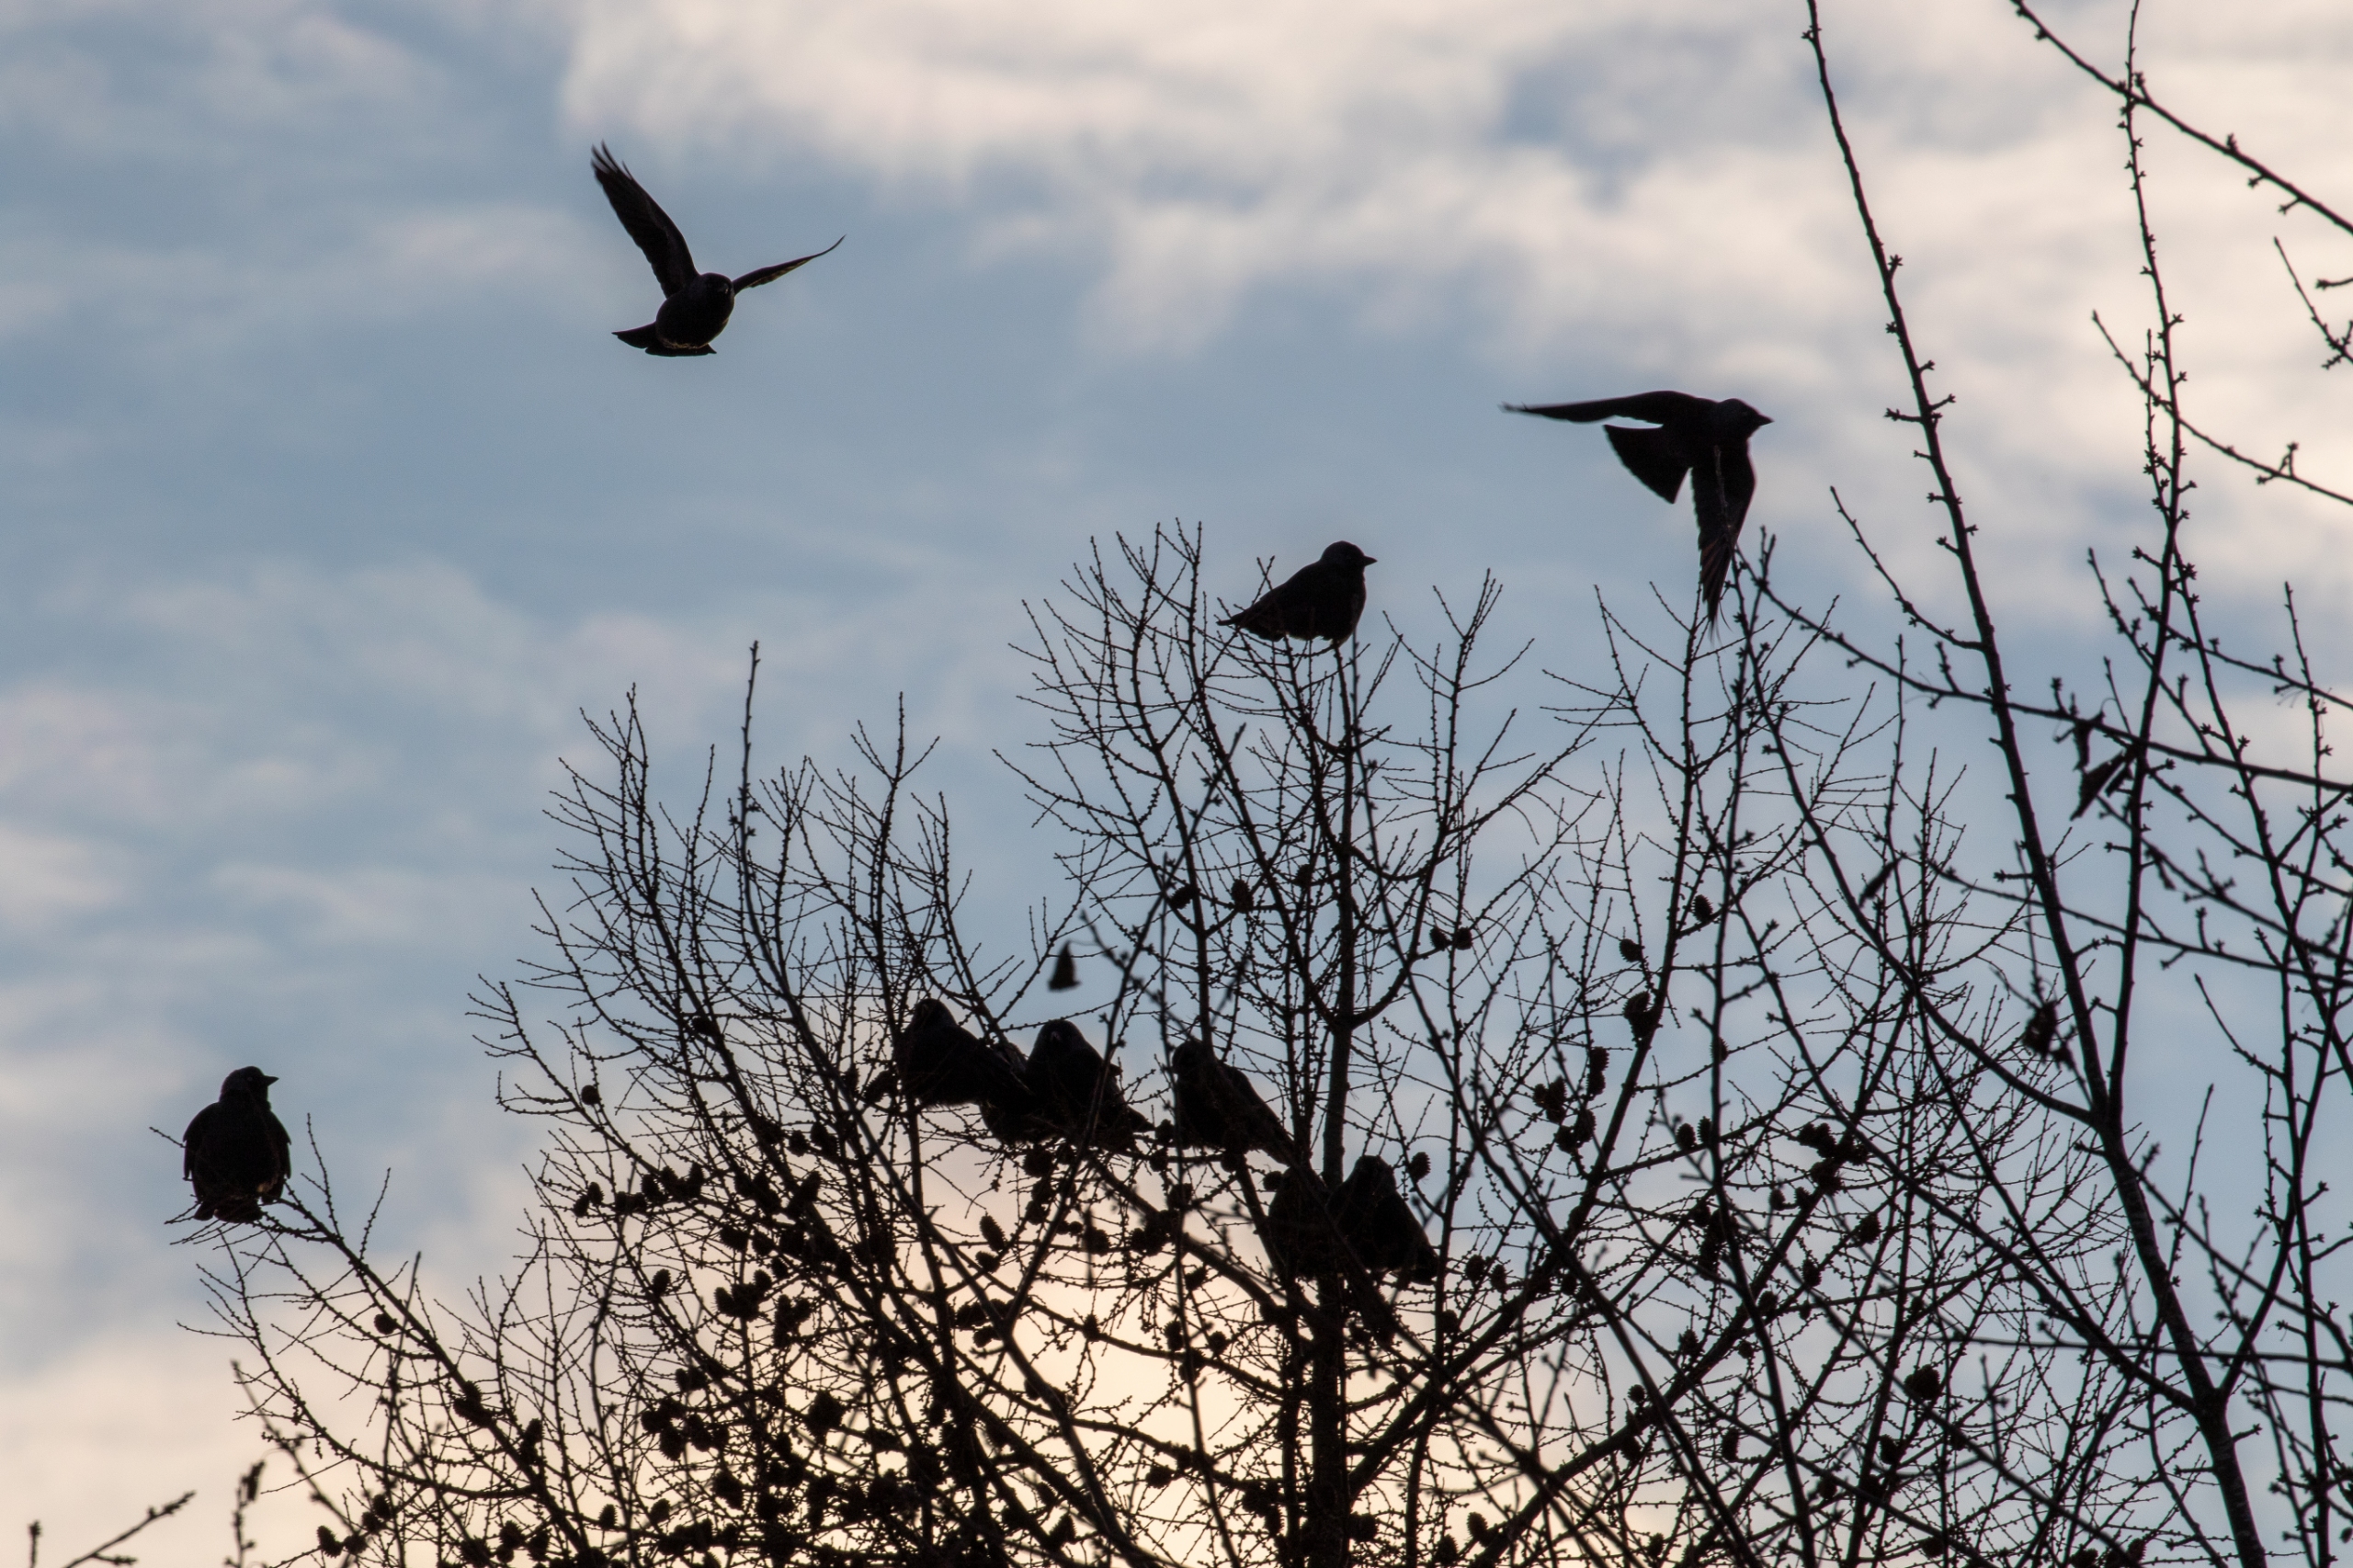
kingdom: Animalia
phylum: Chordata
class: Aves
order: Passeriformes
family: Corvidae
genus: Coloeus
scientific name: Coloeus monedula
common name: Allike
